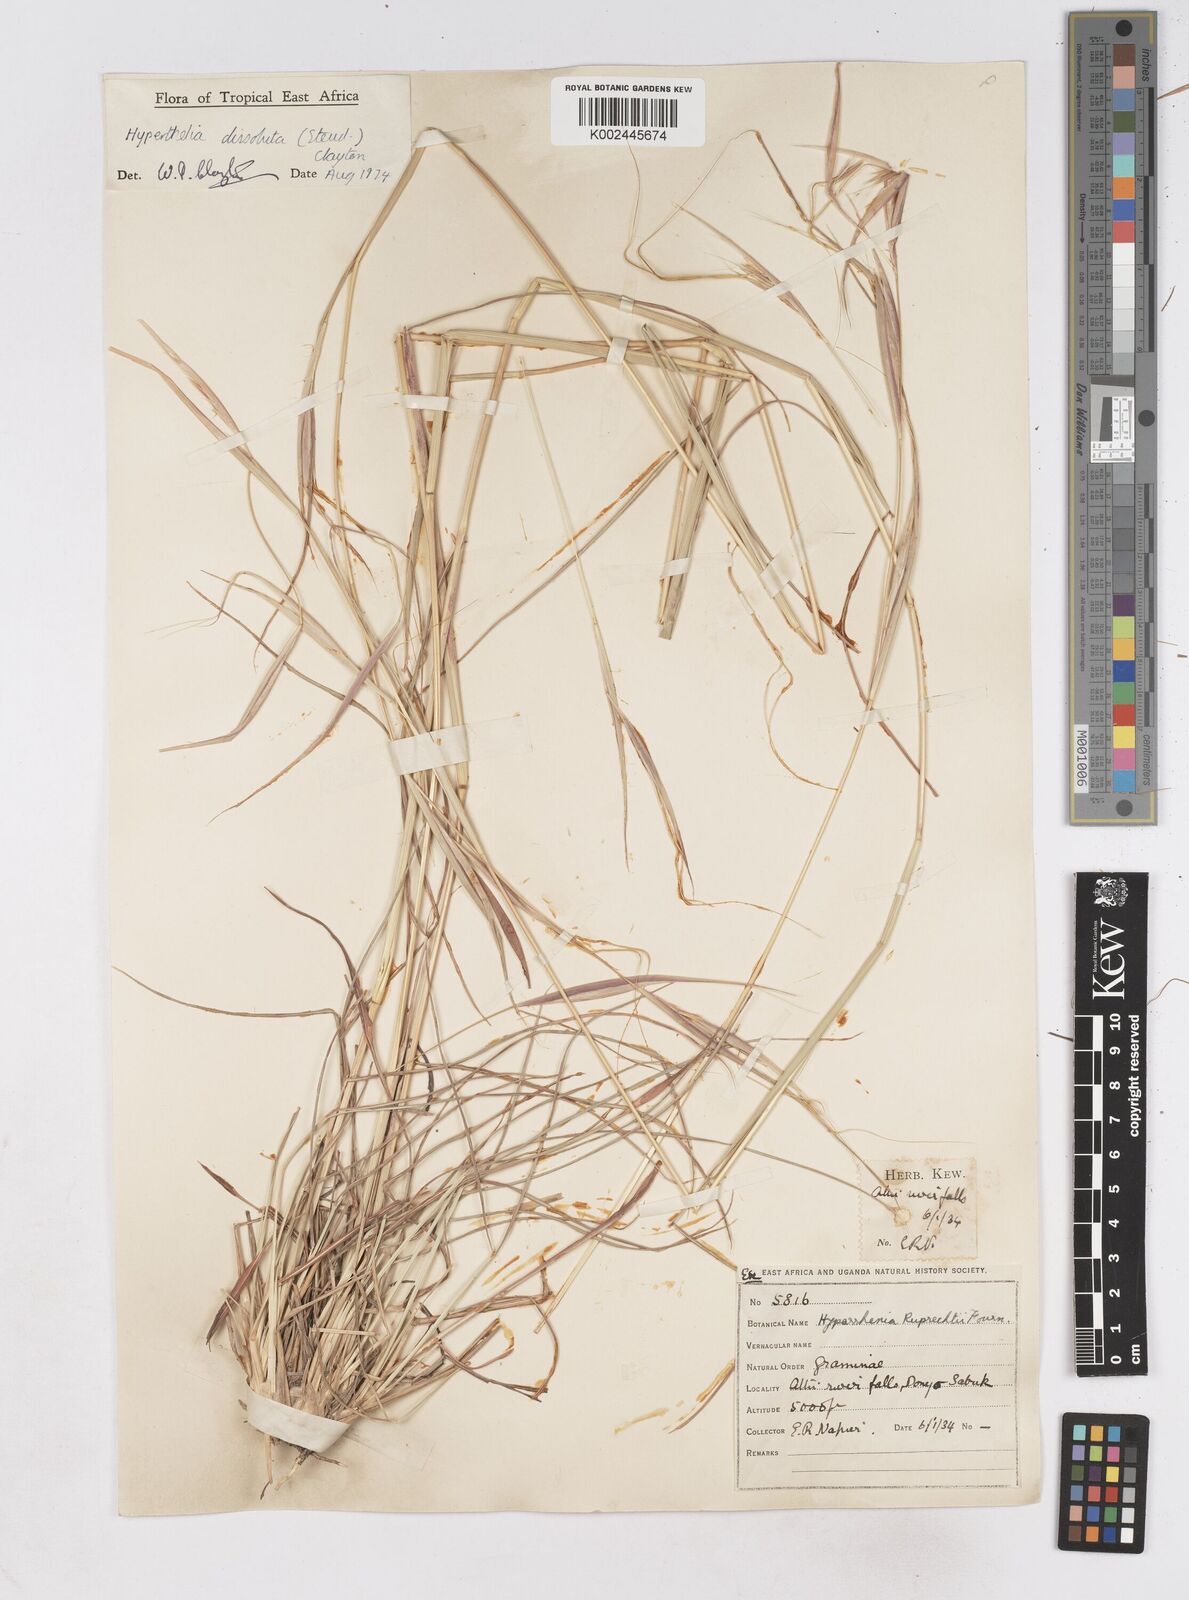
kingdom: Plantae
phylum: Tracheophyta
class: Liliopsida
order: Poales
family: Poaceae
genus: Hyperthelia
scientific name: Hyperthelia dissoluta
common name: Yellow thatching grass
